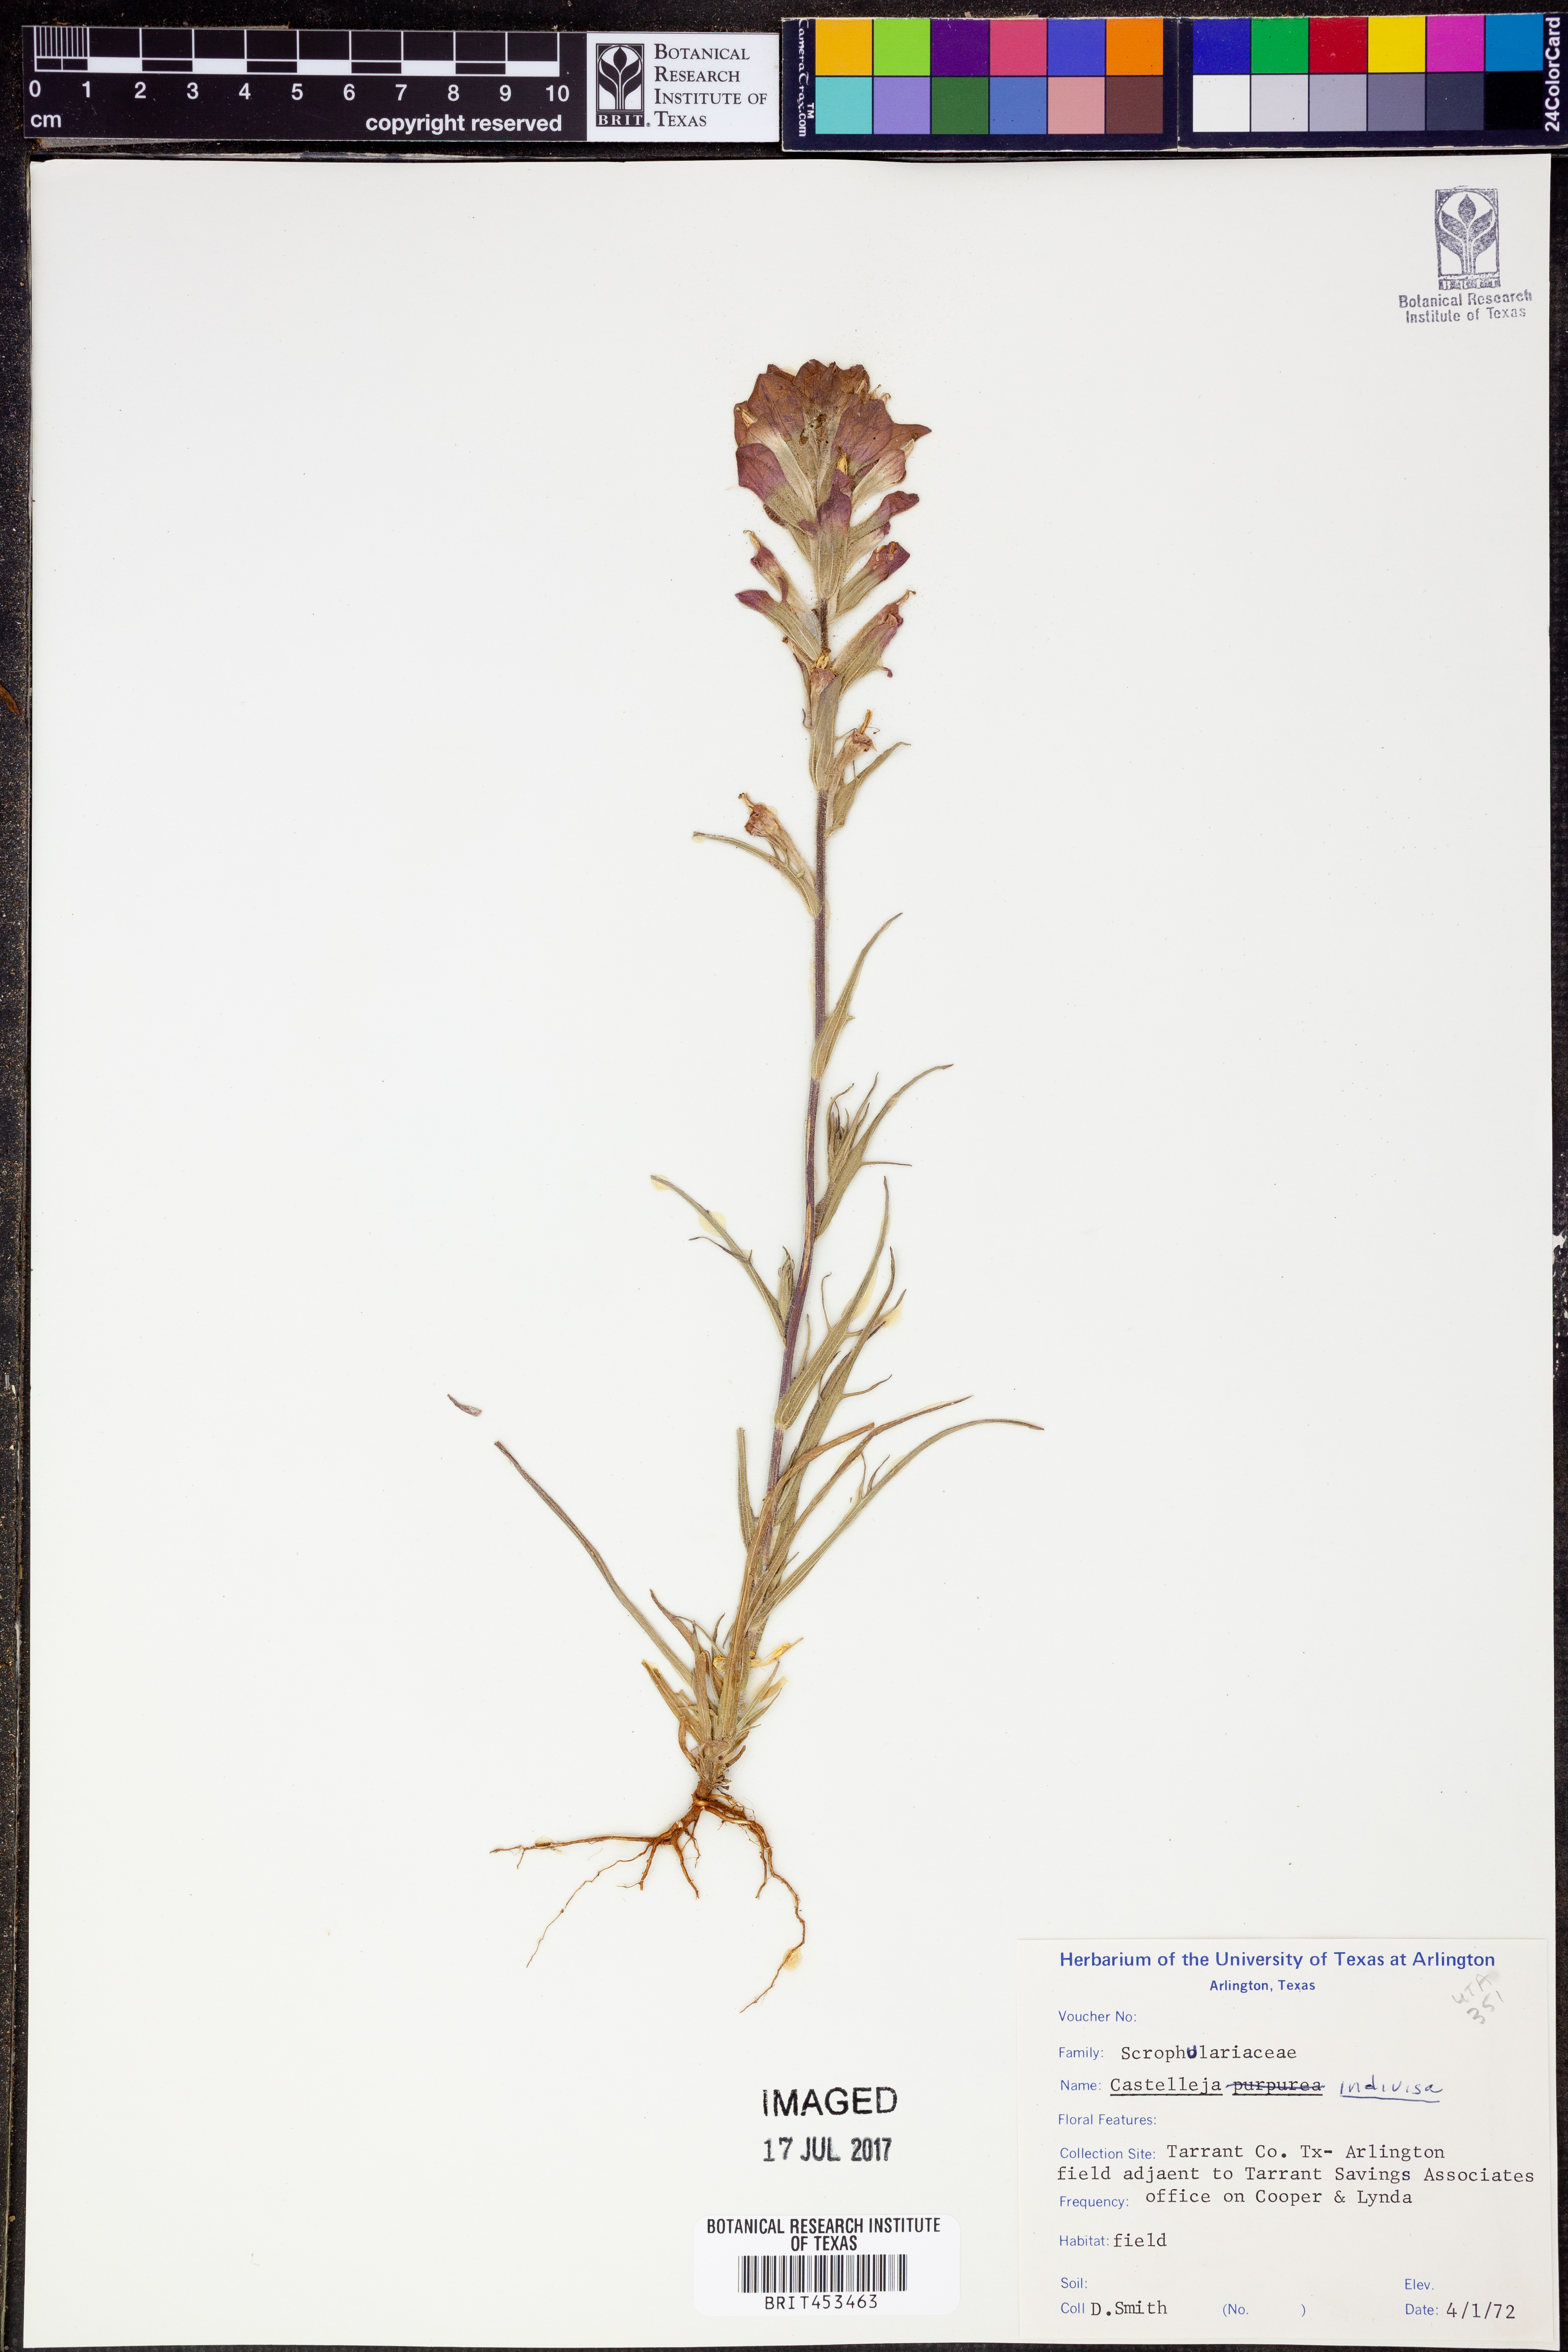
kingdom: Plantae
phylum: Tracheophyta
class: Magnoliopsida
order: Lamiales
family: Orobanchaceae
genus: Castilleja
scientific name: Castilleja indivisa
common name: Texas paintbrush
